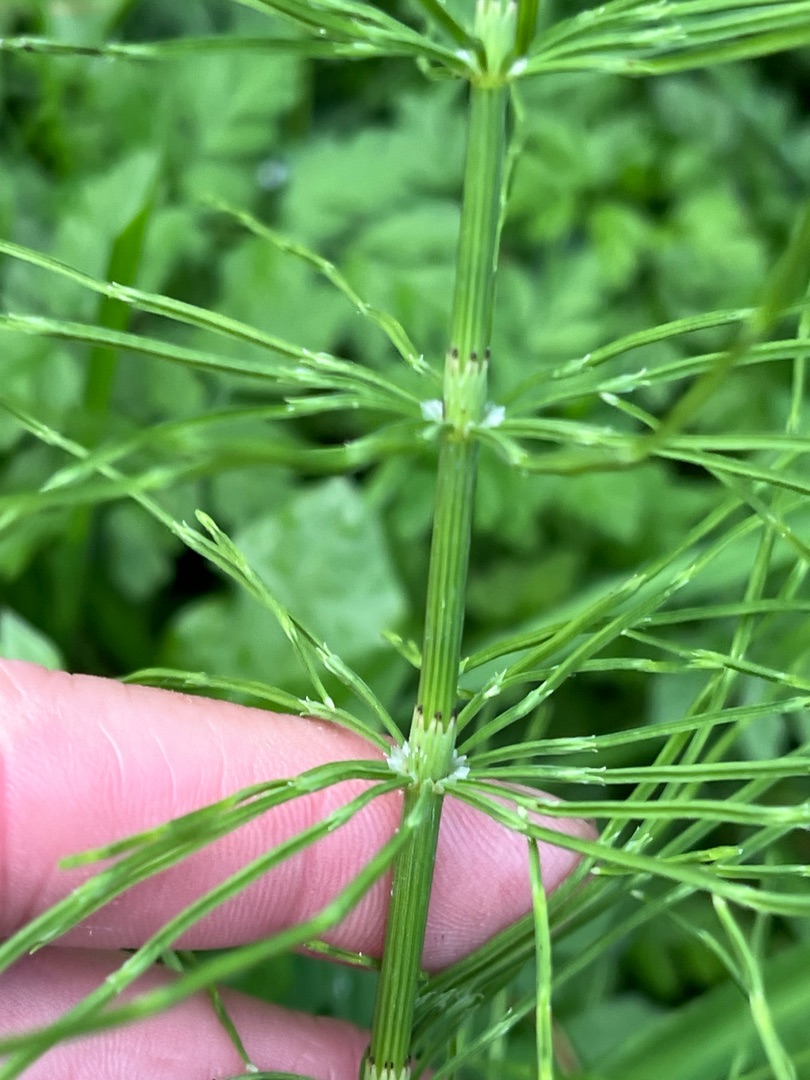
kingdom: Plantae
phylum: Tracheophyta
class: Polypodiopsida
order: Equisetales
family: Equisetaceae
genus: Equisetum
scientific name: Equisetum arvense
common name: Ager-padderok
